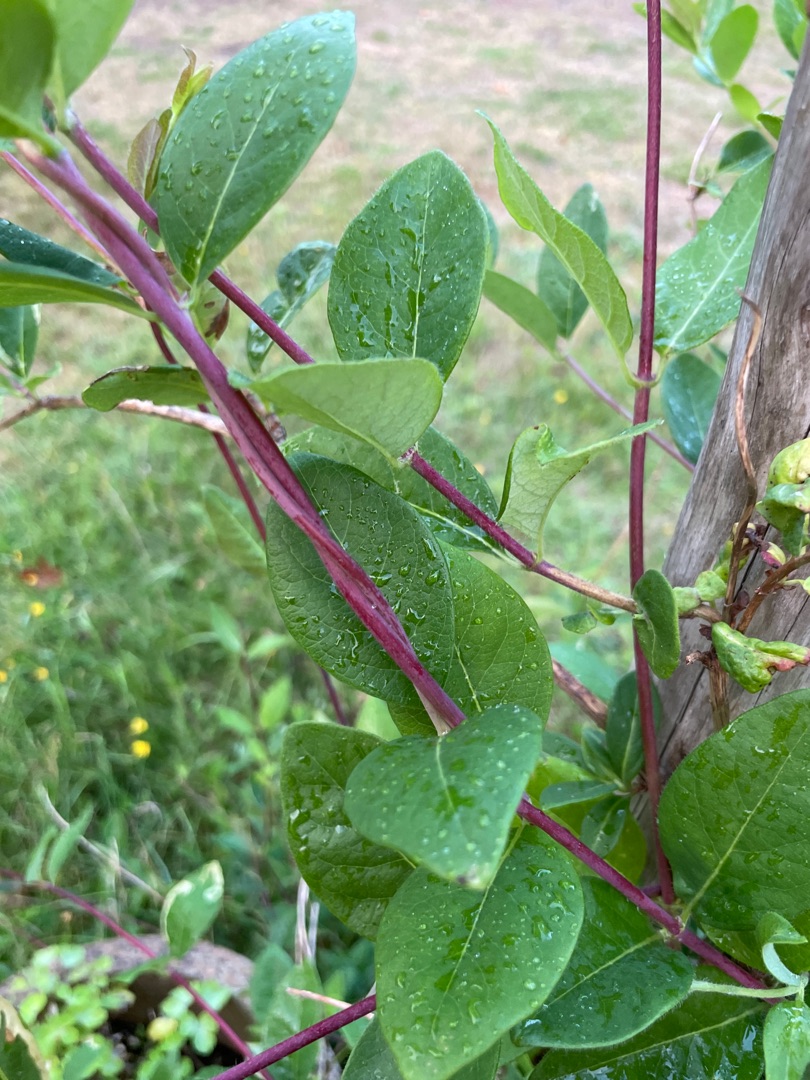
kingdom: Plantae
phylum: Tracheophyta
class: Magnoliopsida
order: Dipsacales
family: Caprifoliaceae
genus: Lonicera
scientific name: Lonicera periclymenum
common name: Almindelig gedeblad
